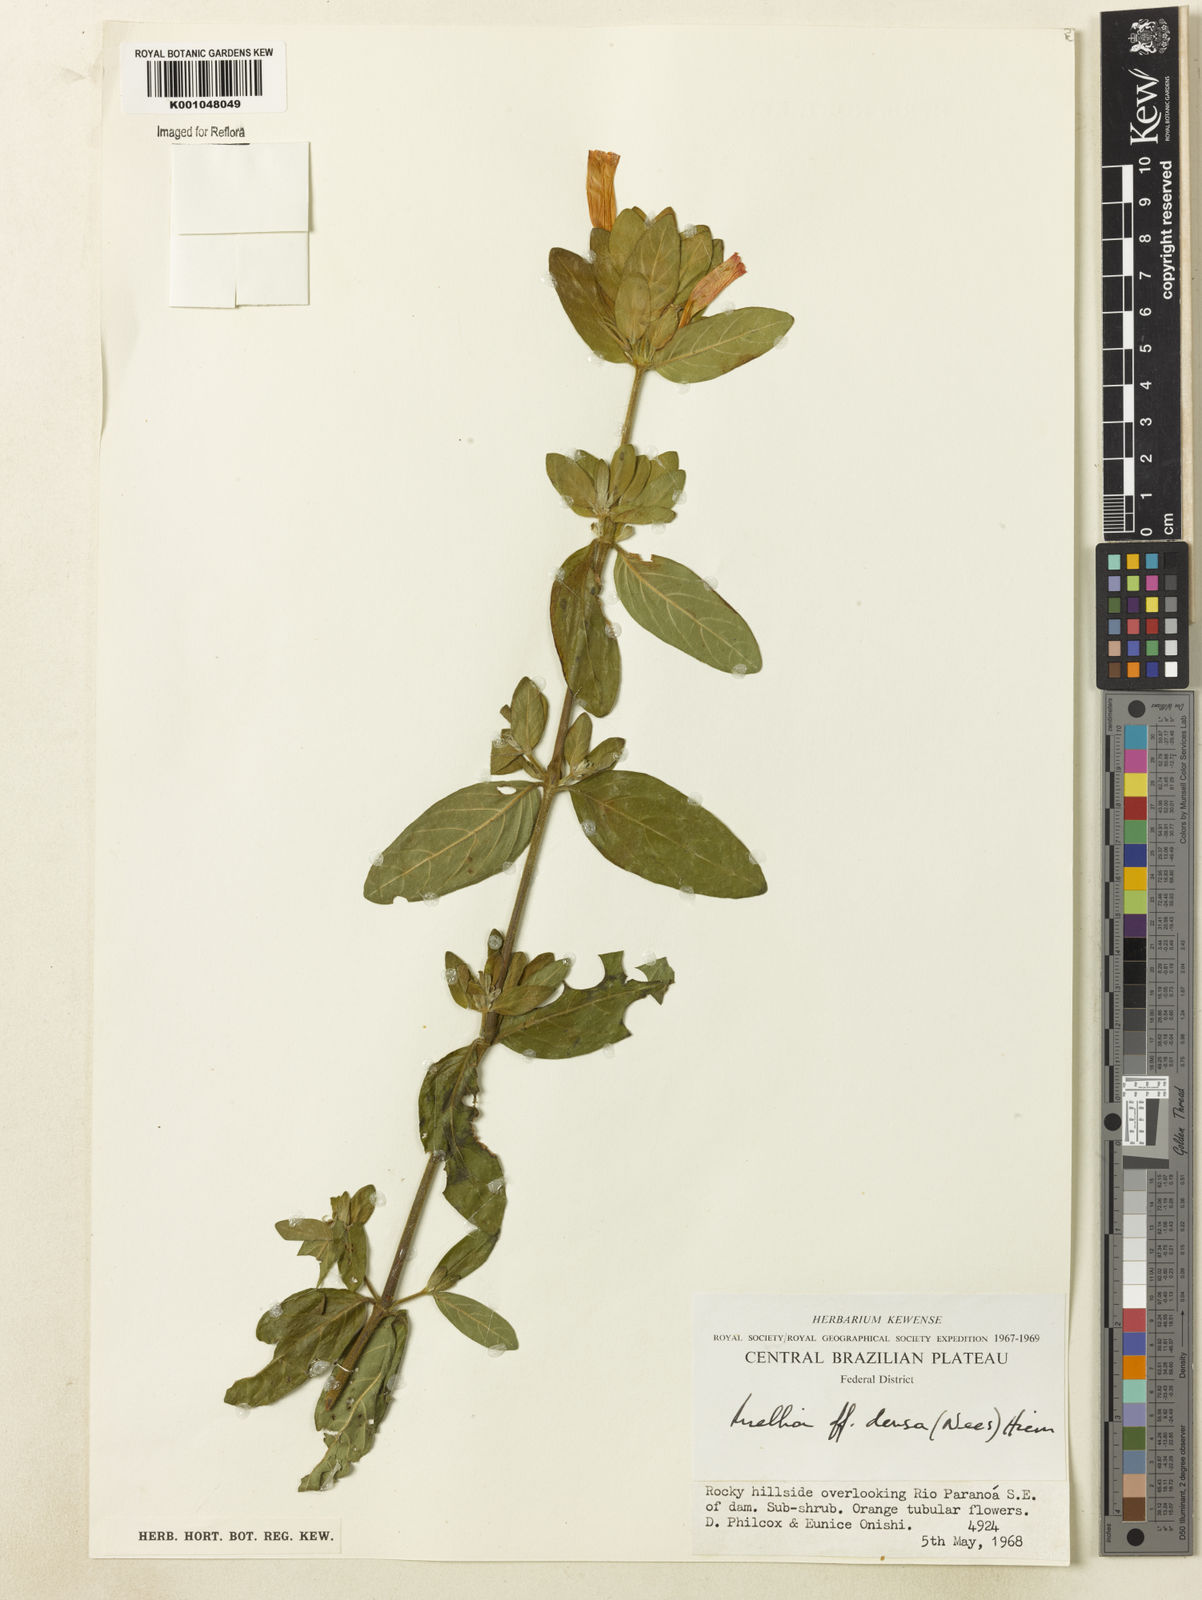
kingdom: Plantae
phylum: Tracheophyta
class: Magnoliopsida
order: Lamiales
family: Acanthaceae
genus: Ruellia
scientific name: Ruellia densa
